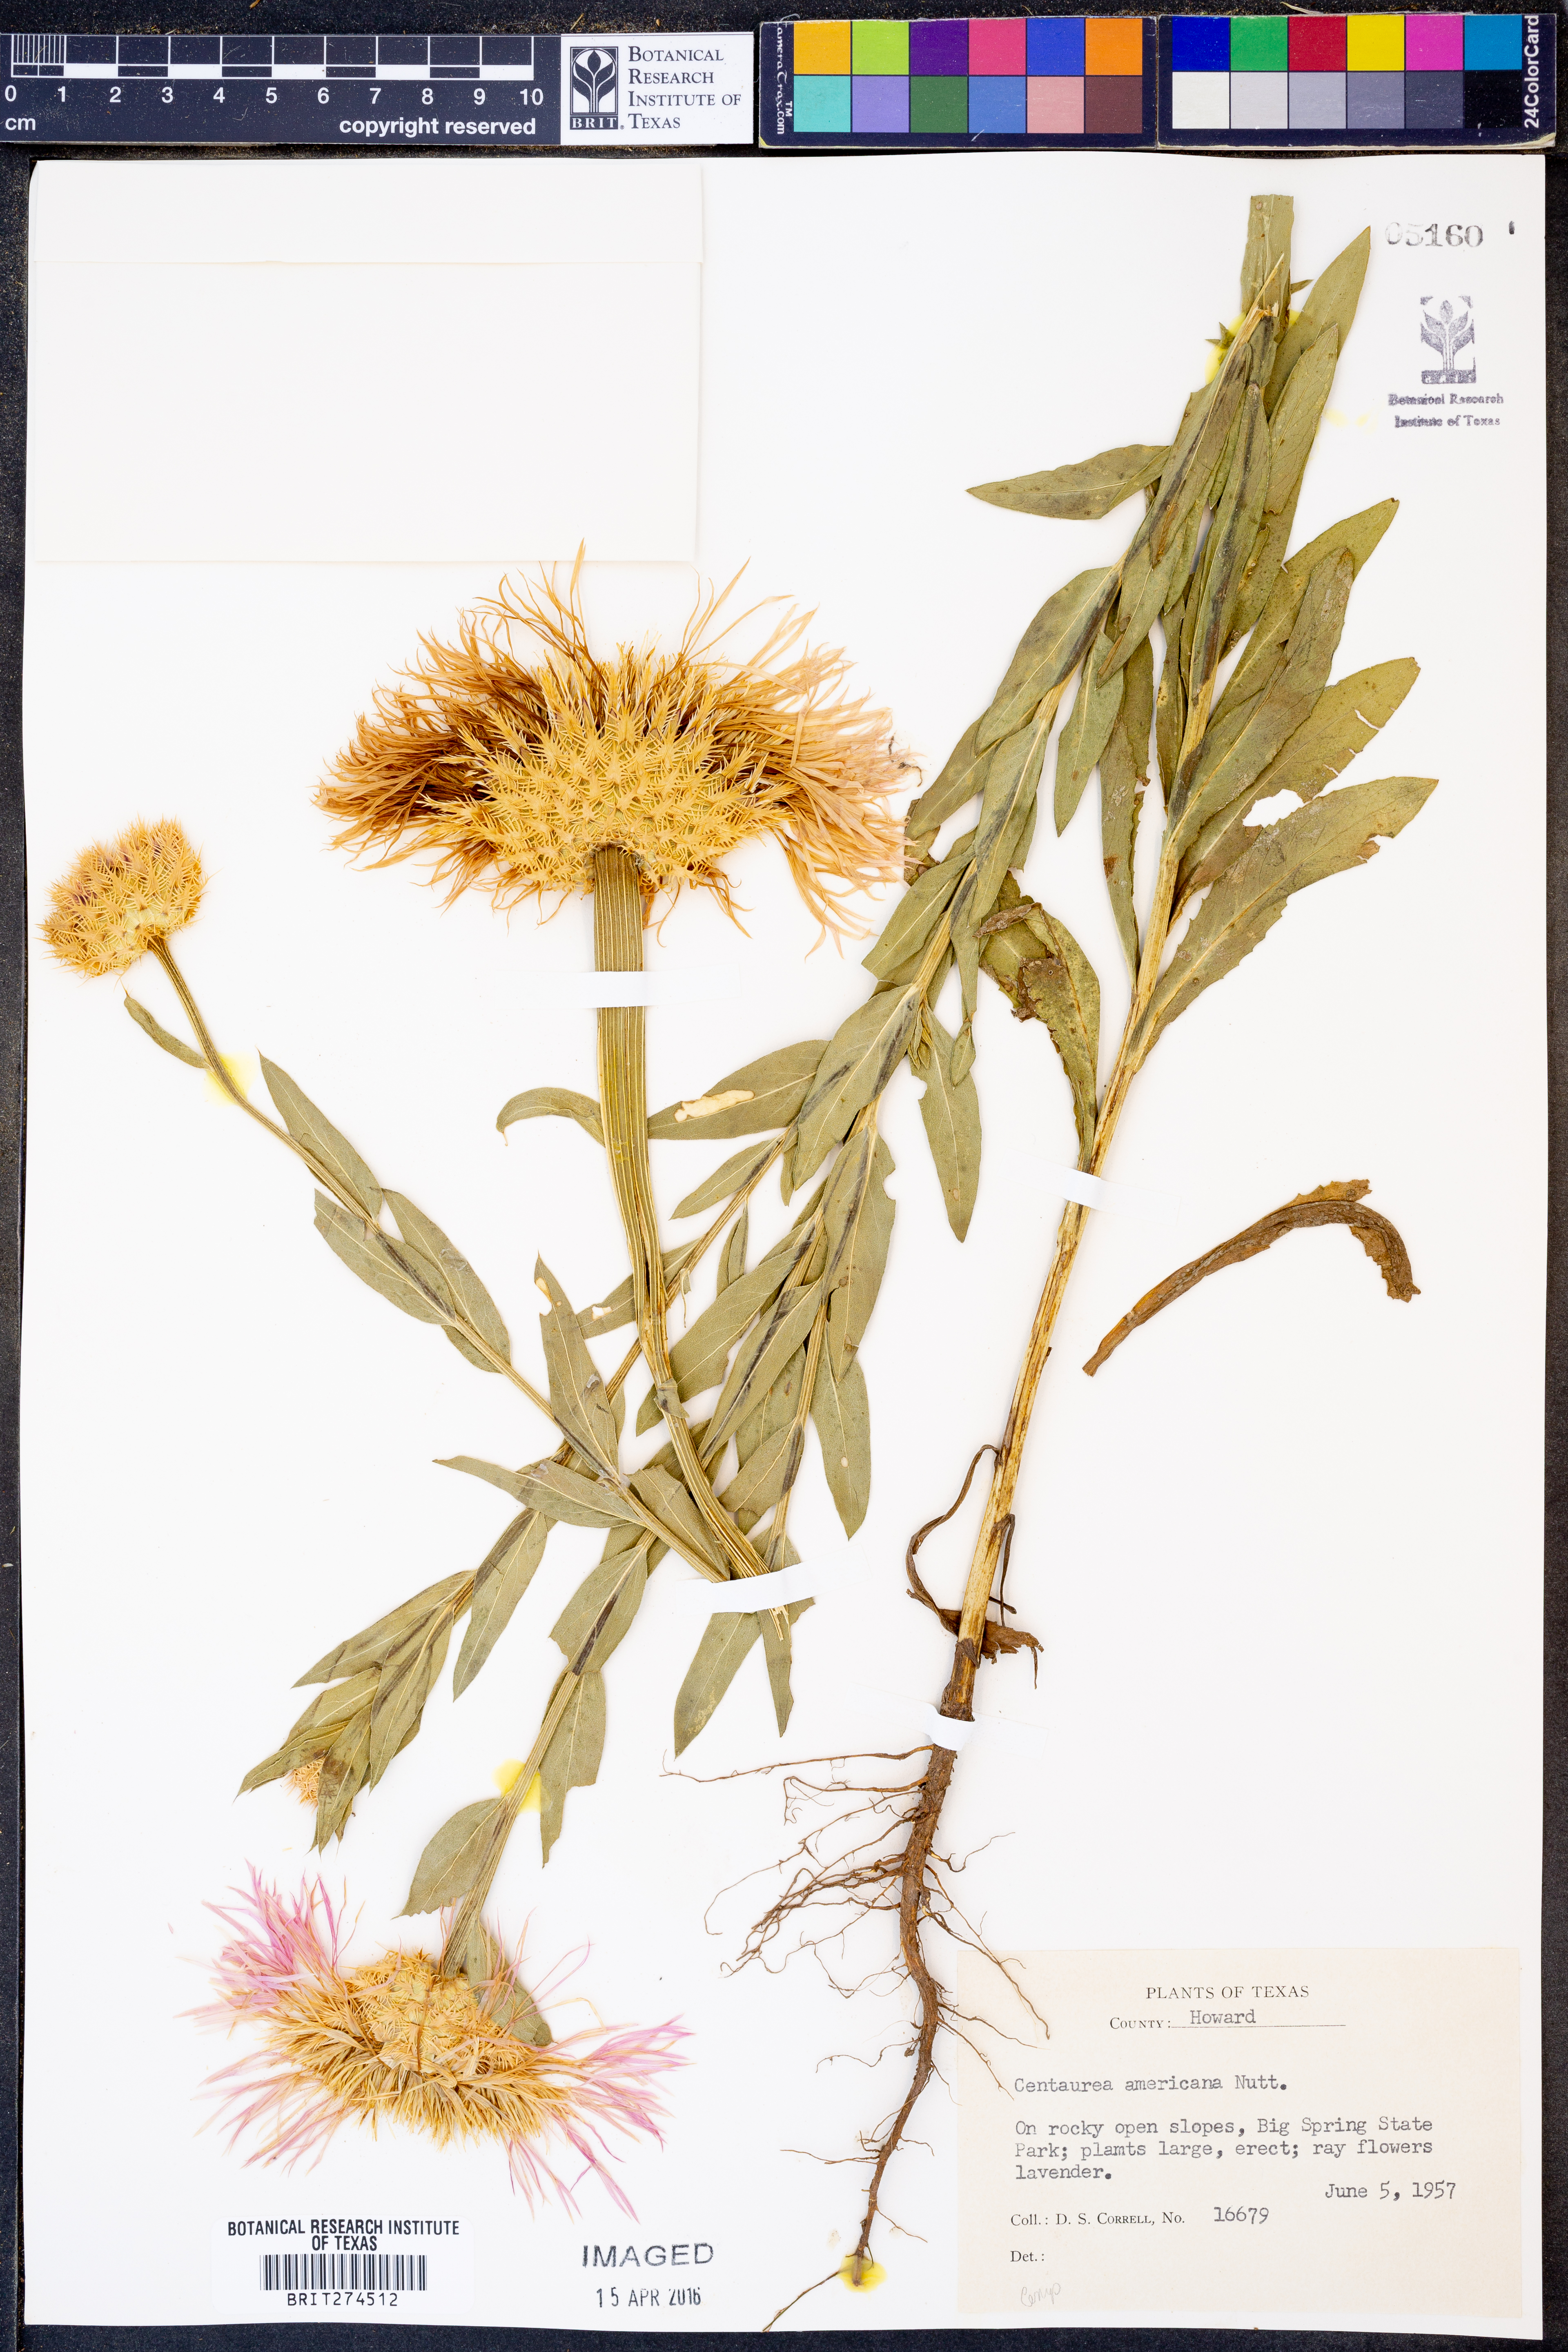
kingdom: Plantae
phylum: Tracheophyta
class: Magnoliopsida
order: Asterales
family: Asteraceae
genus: Plectocephalus
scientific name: Plectocephalus americanus
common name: American basket-flower
